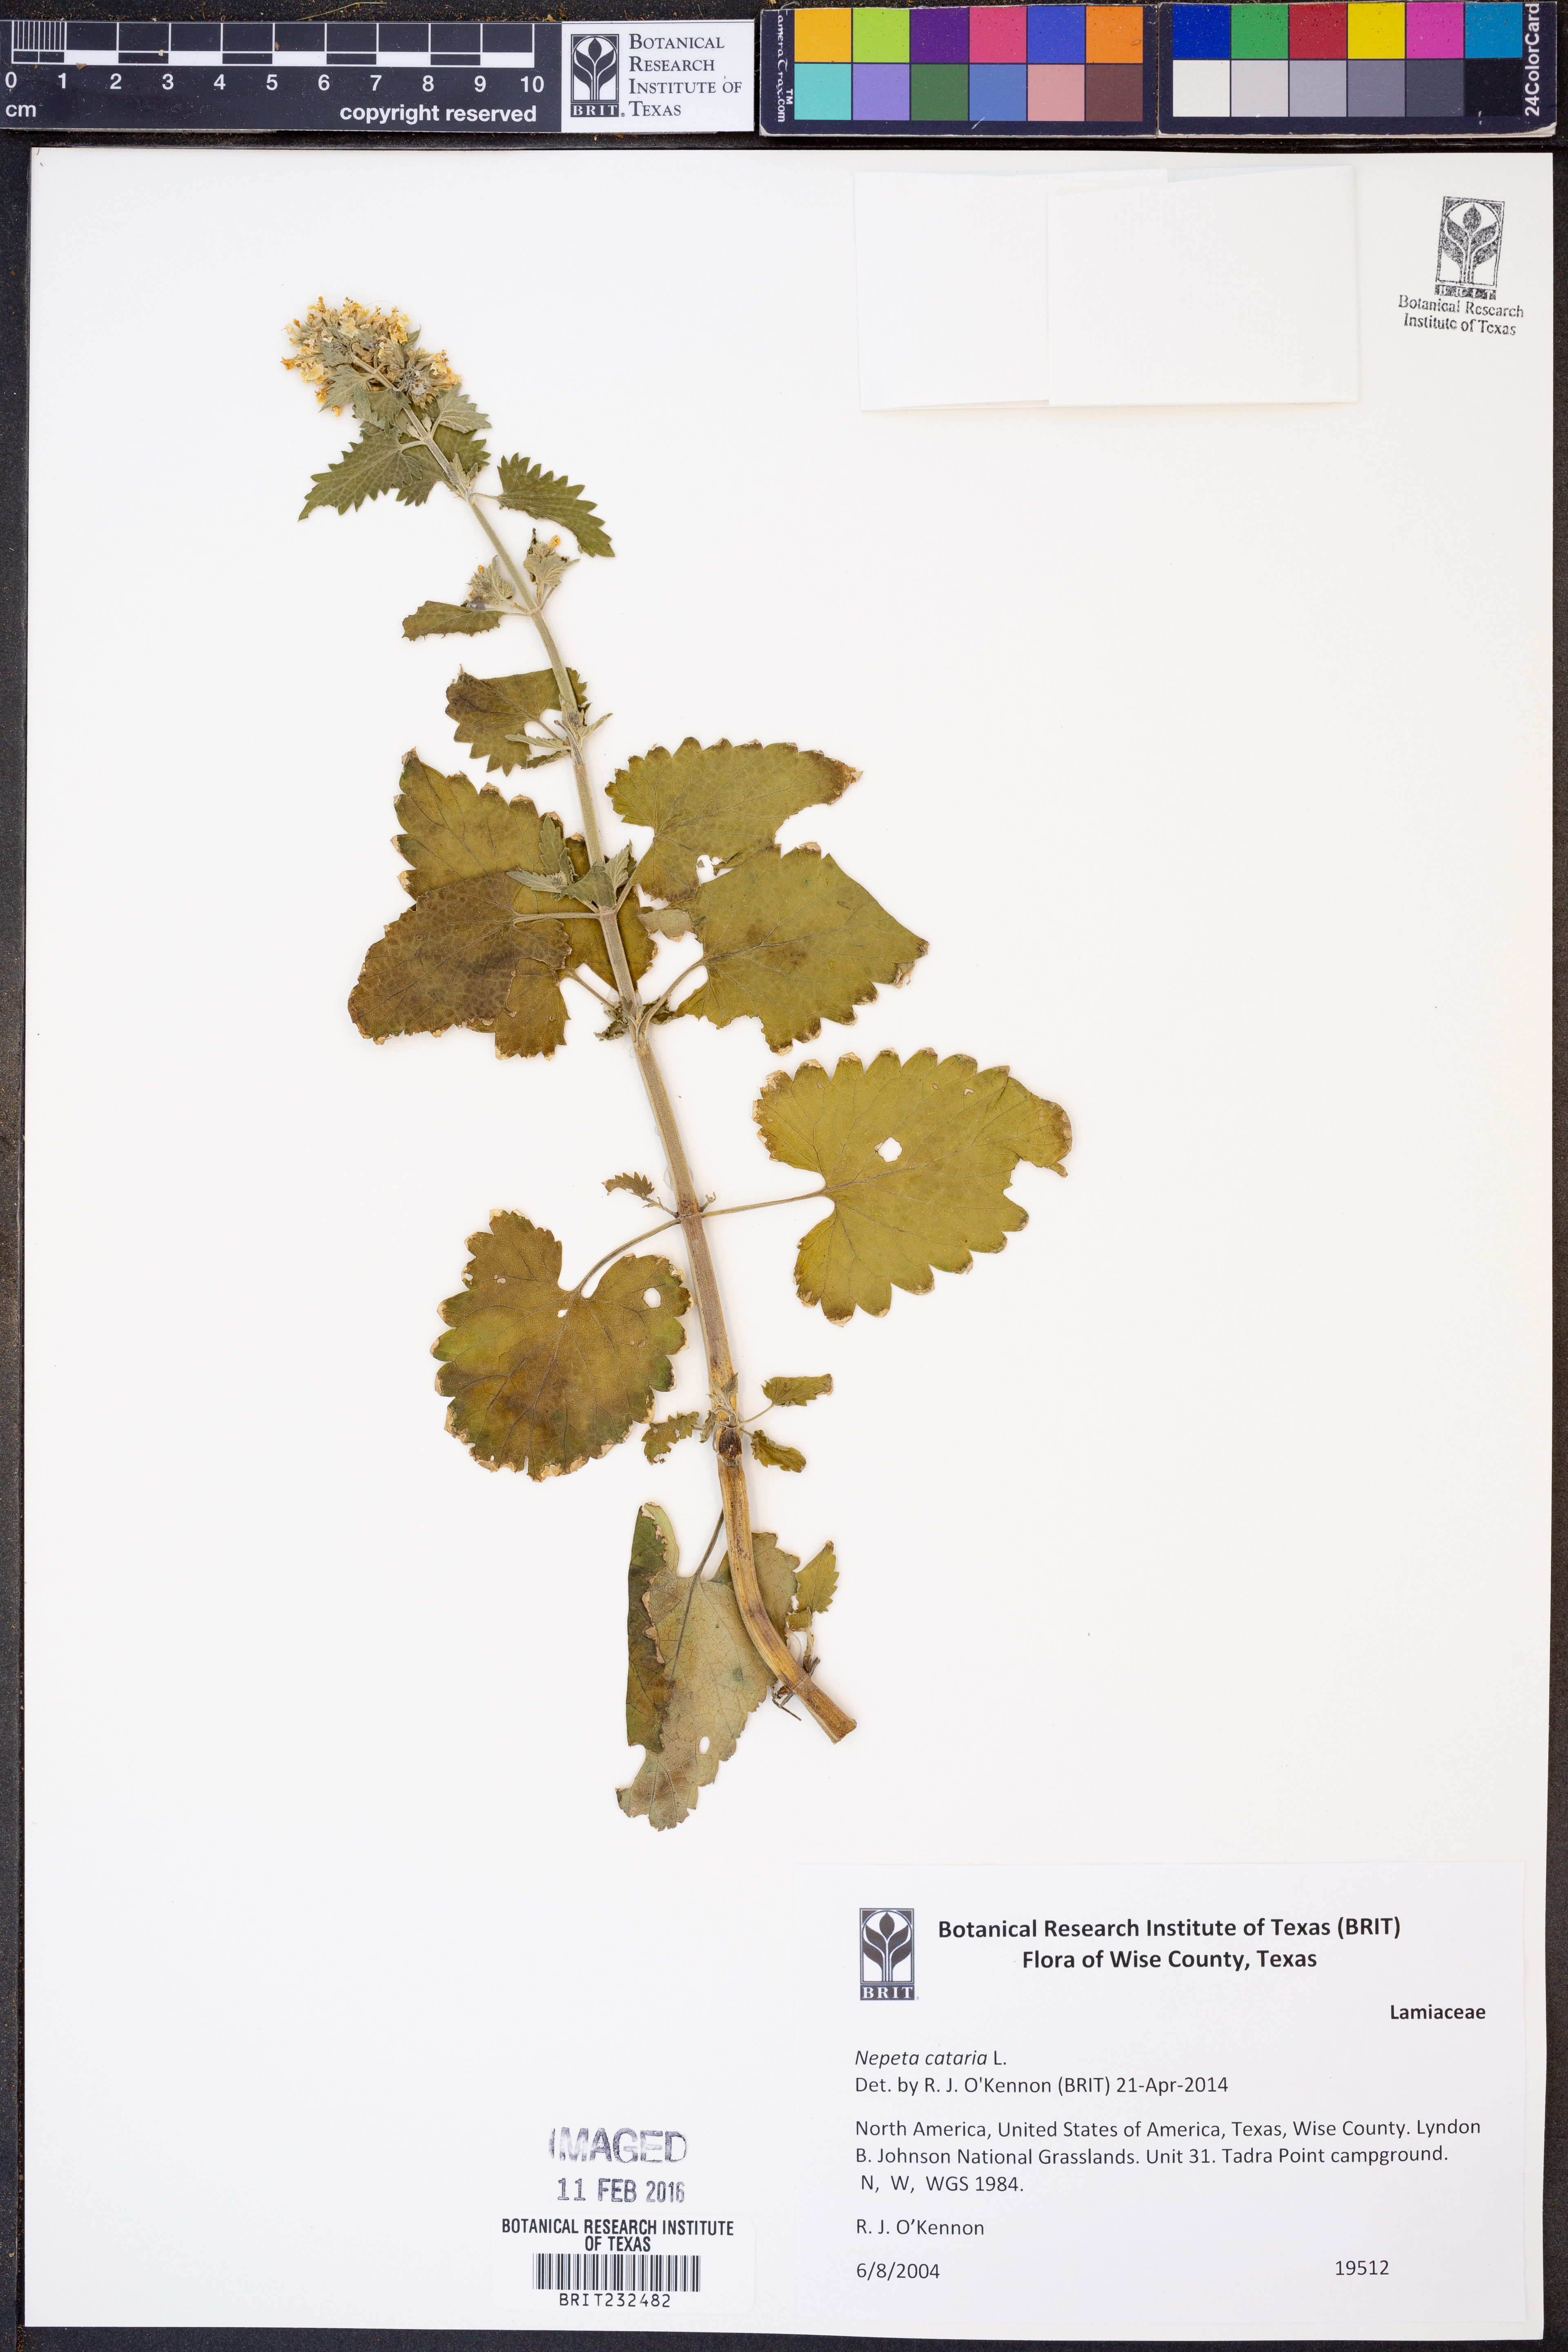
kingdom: Plantae
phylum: Tracheophyta
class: Magnoliopsida
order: Lamiales
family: Lamiaceae
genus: Nepeta
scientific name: Nepeta cataria
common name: Catnip
